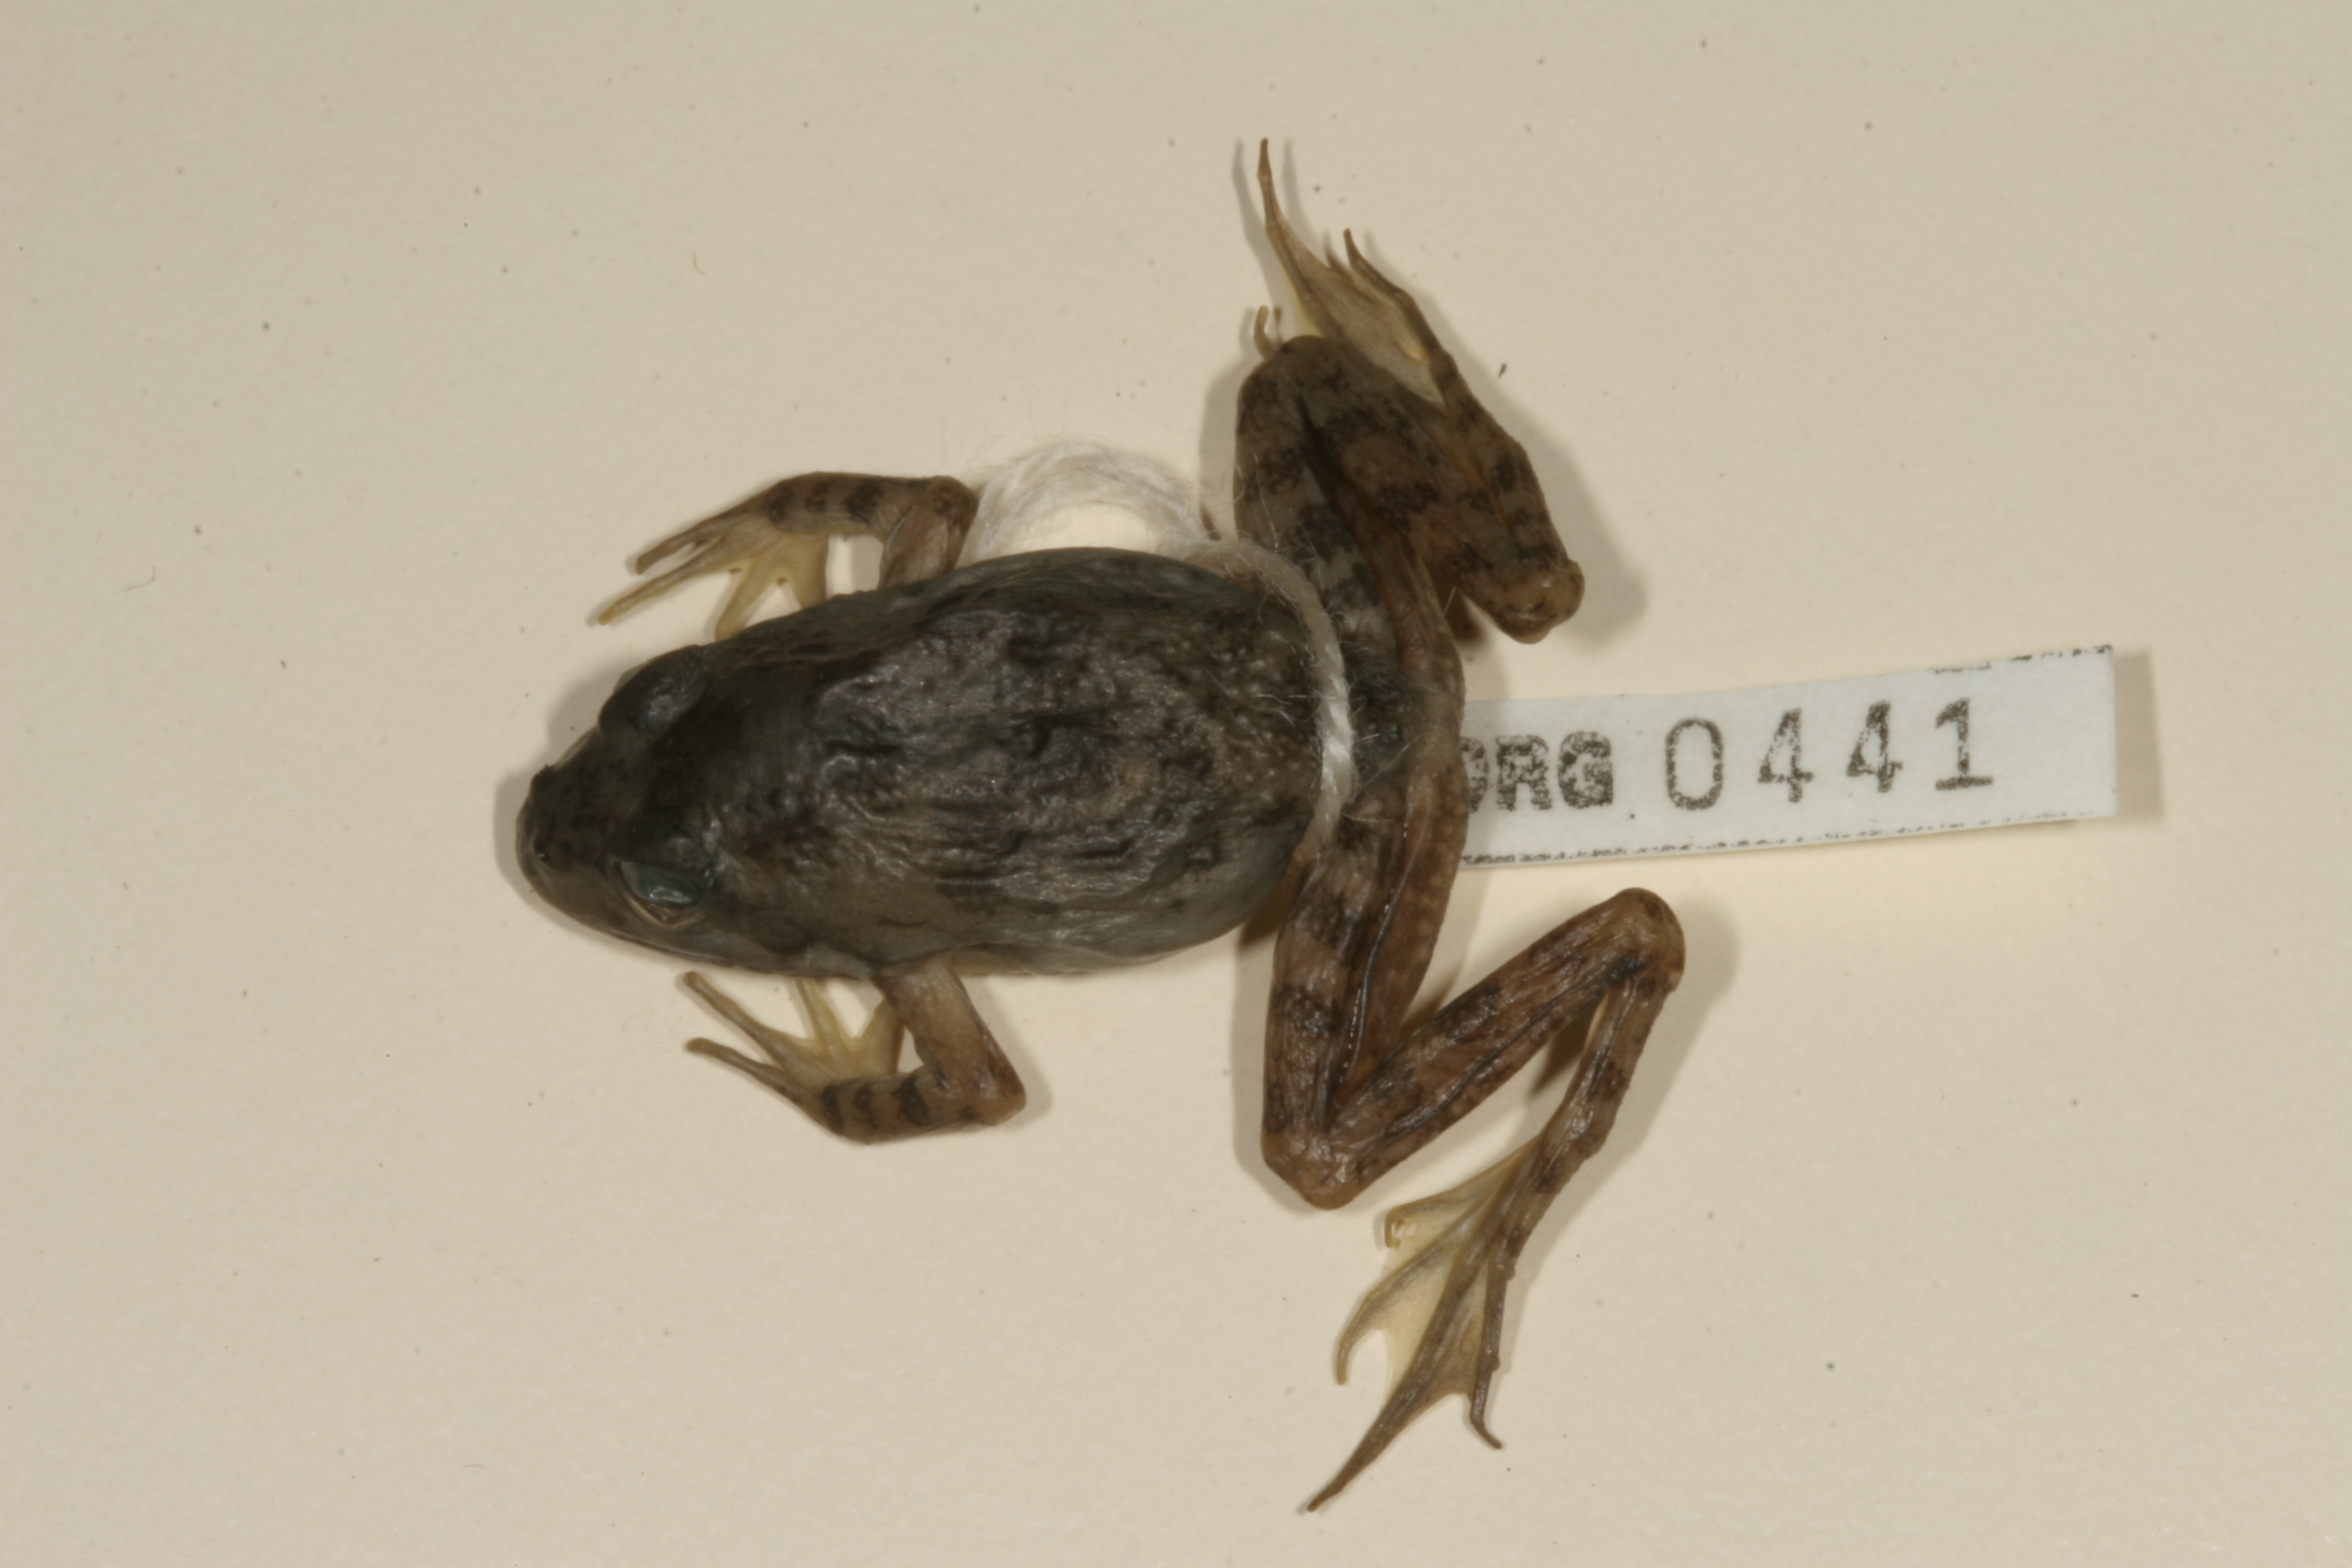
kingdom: Animalia
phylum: Chordata
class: Amphibia
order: Anura
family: Pyxicephalidae
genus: Amietia
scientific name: Amietia fuscigula
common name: Cape rana
